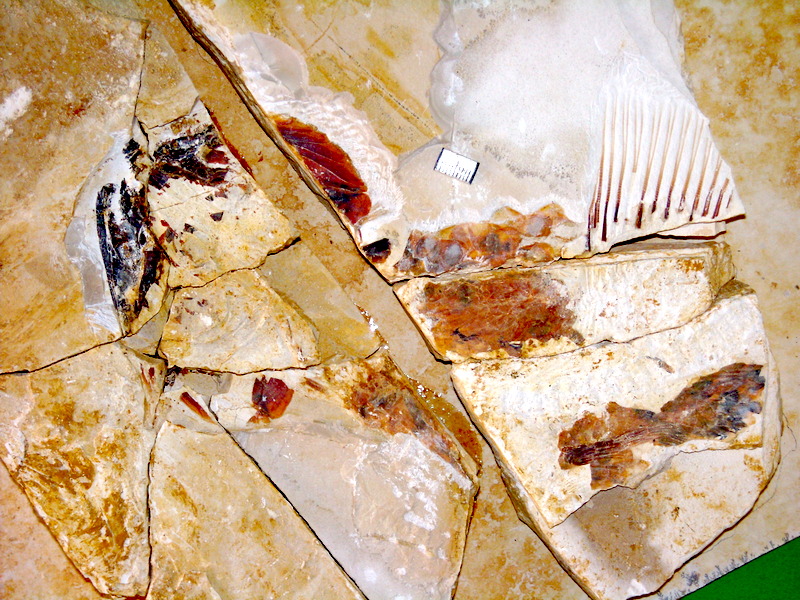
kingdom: Animalia
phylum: Chordata
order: Amiiformes
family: Amiidae
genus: Amiopsis
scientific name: Amiopsis lepidota
